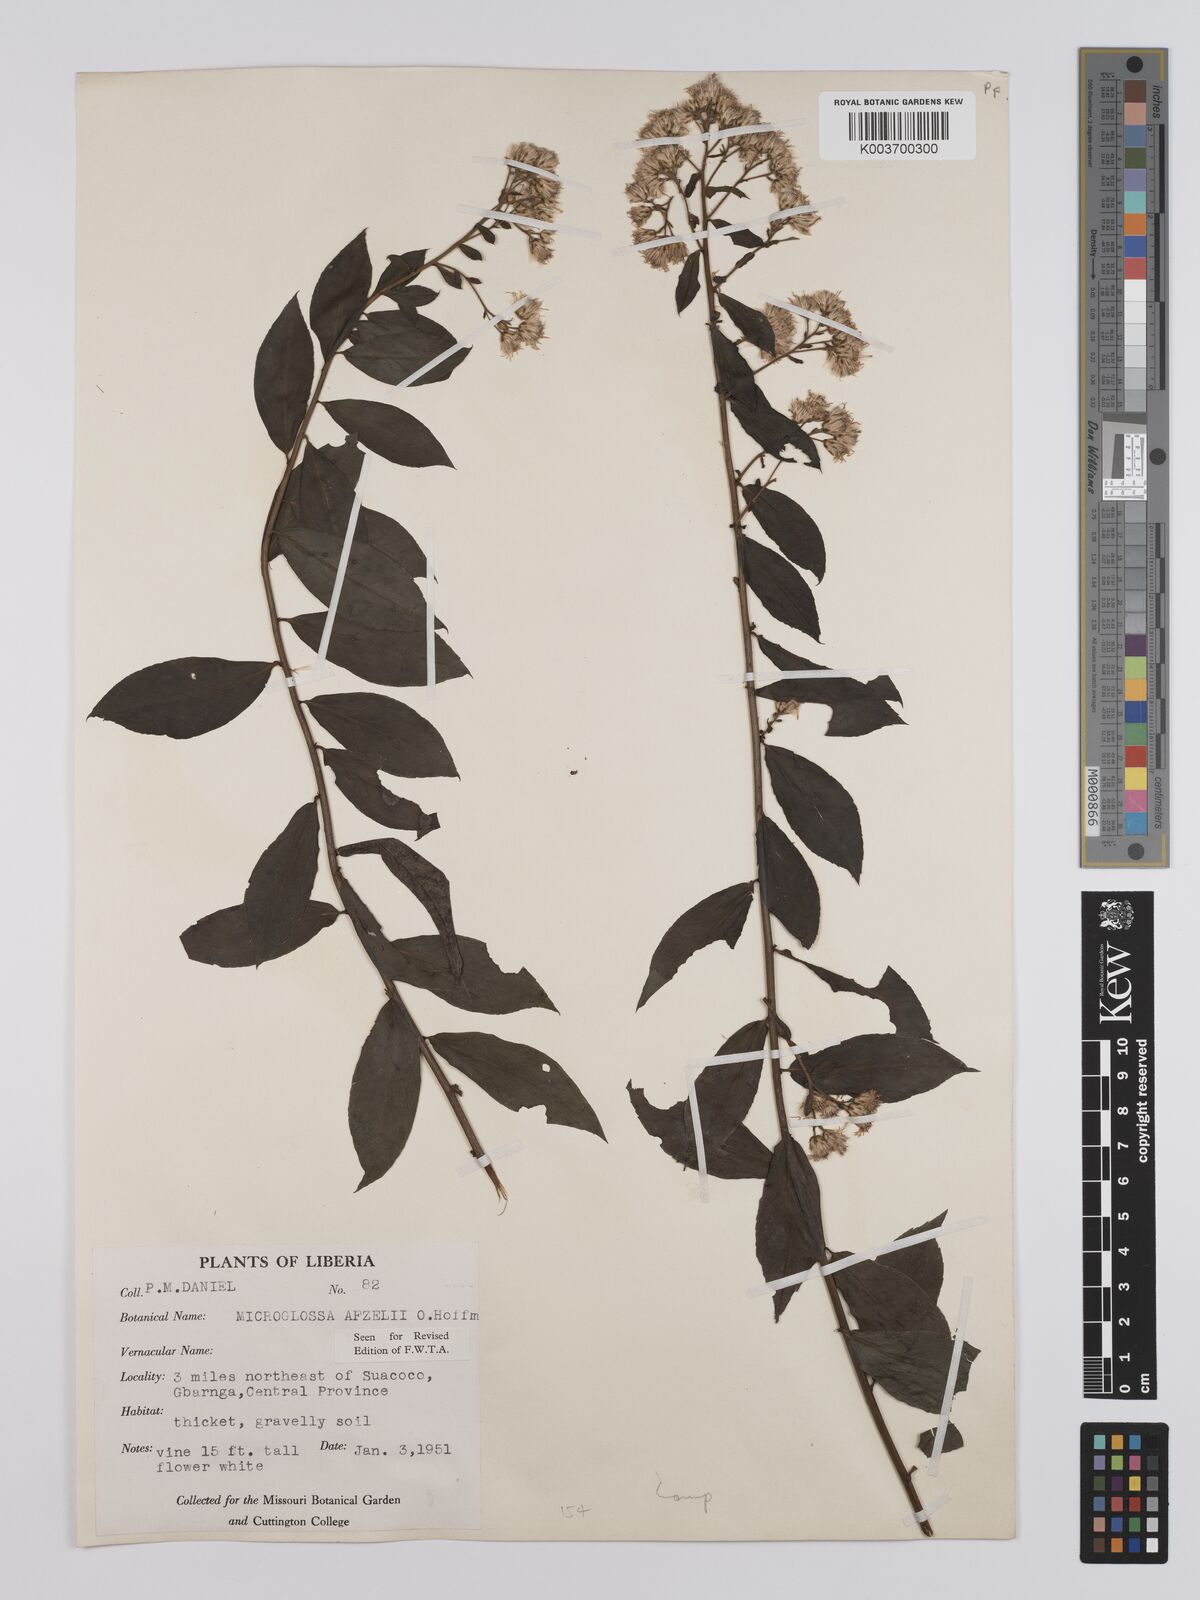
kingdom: Plantae
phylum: Tracheophyta
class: Magnoliopsida
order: Asterales
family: Asteraceae
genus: Microglossa
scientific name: Microglossa afzelii
